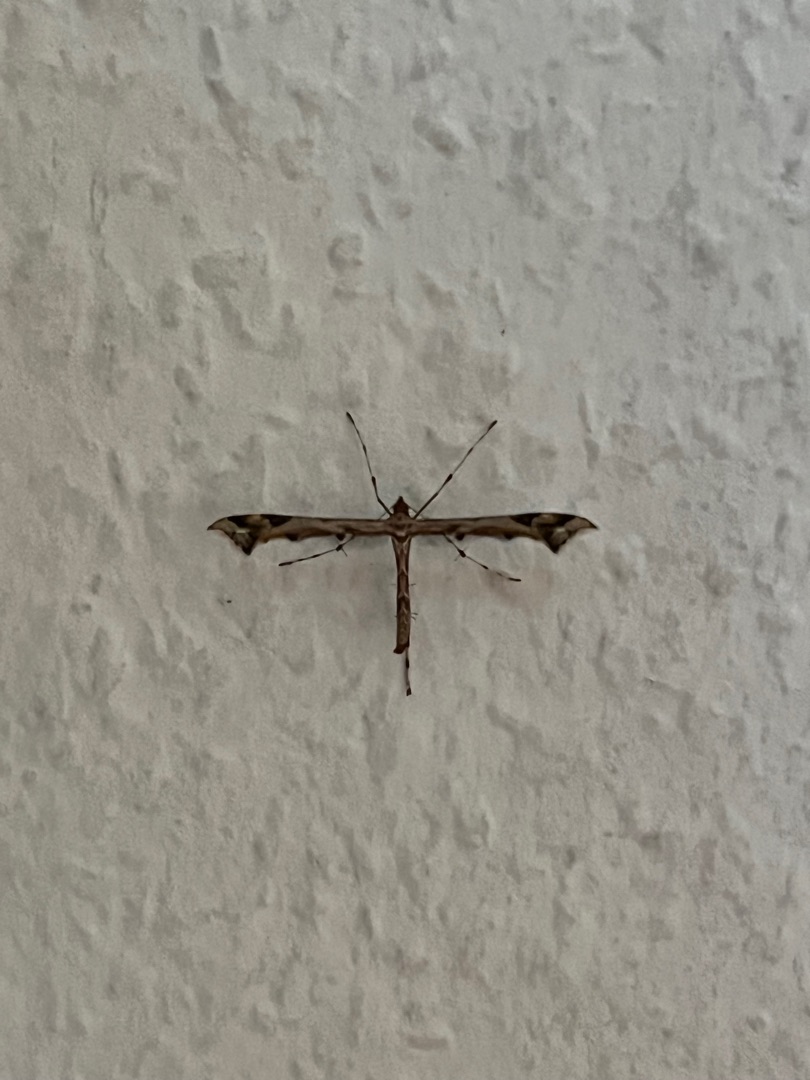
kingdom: Animalia
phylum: Arthropoda
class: Insecta
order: Lepidoptera
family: Pterophoridae
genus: Amblyptilia
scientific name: Amblyptilia acanthadactyla
